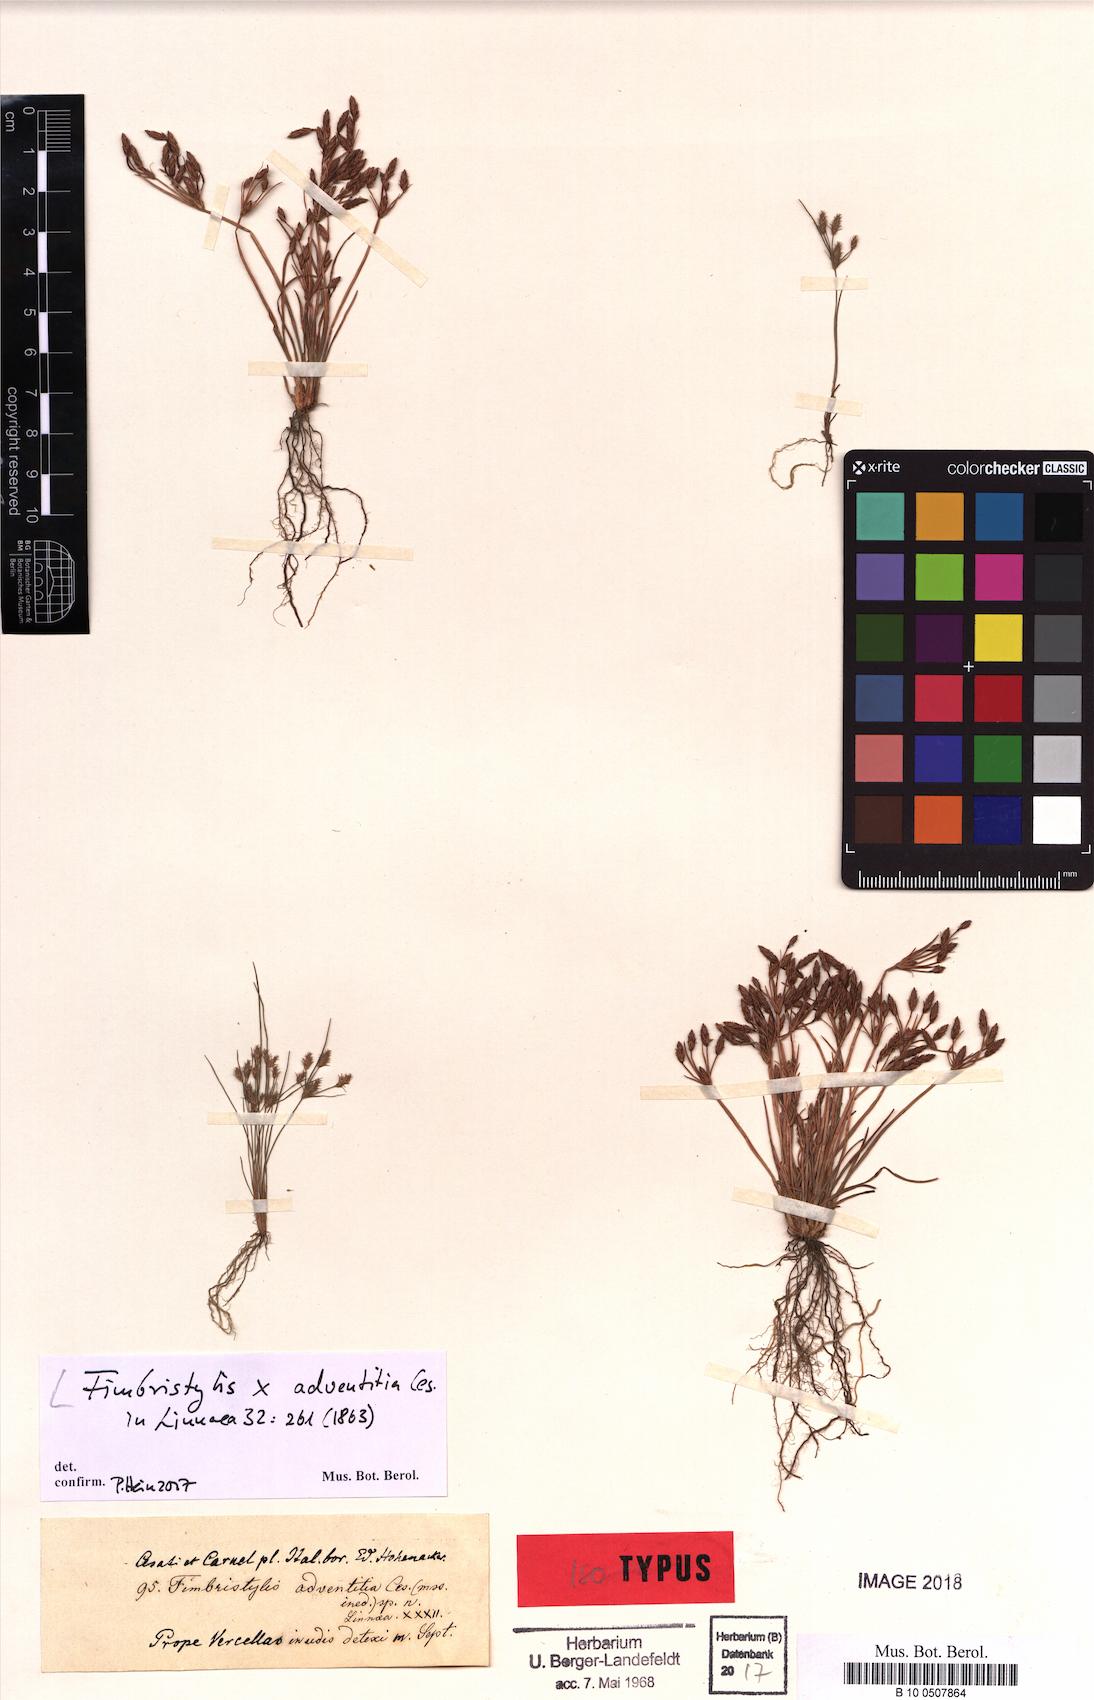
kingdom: Plantae
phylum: Tracheophyta
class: Liliopsida
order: Poales
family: Cyperaceae
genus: Fimbristylis
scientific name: Fimbristylis adventitia
